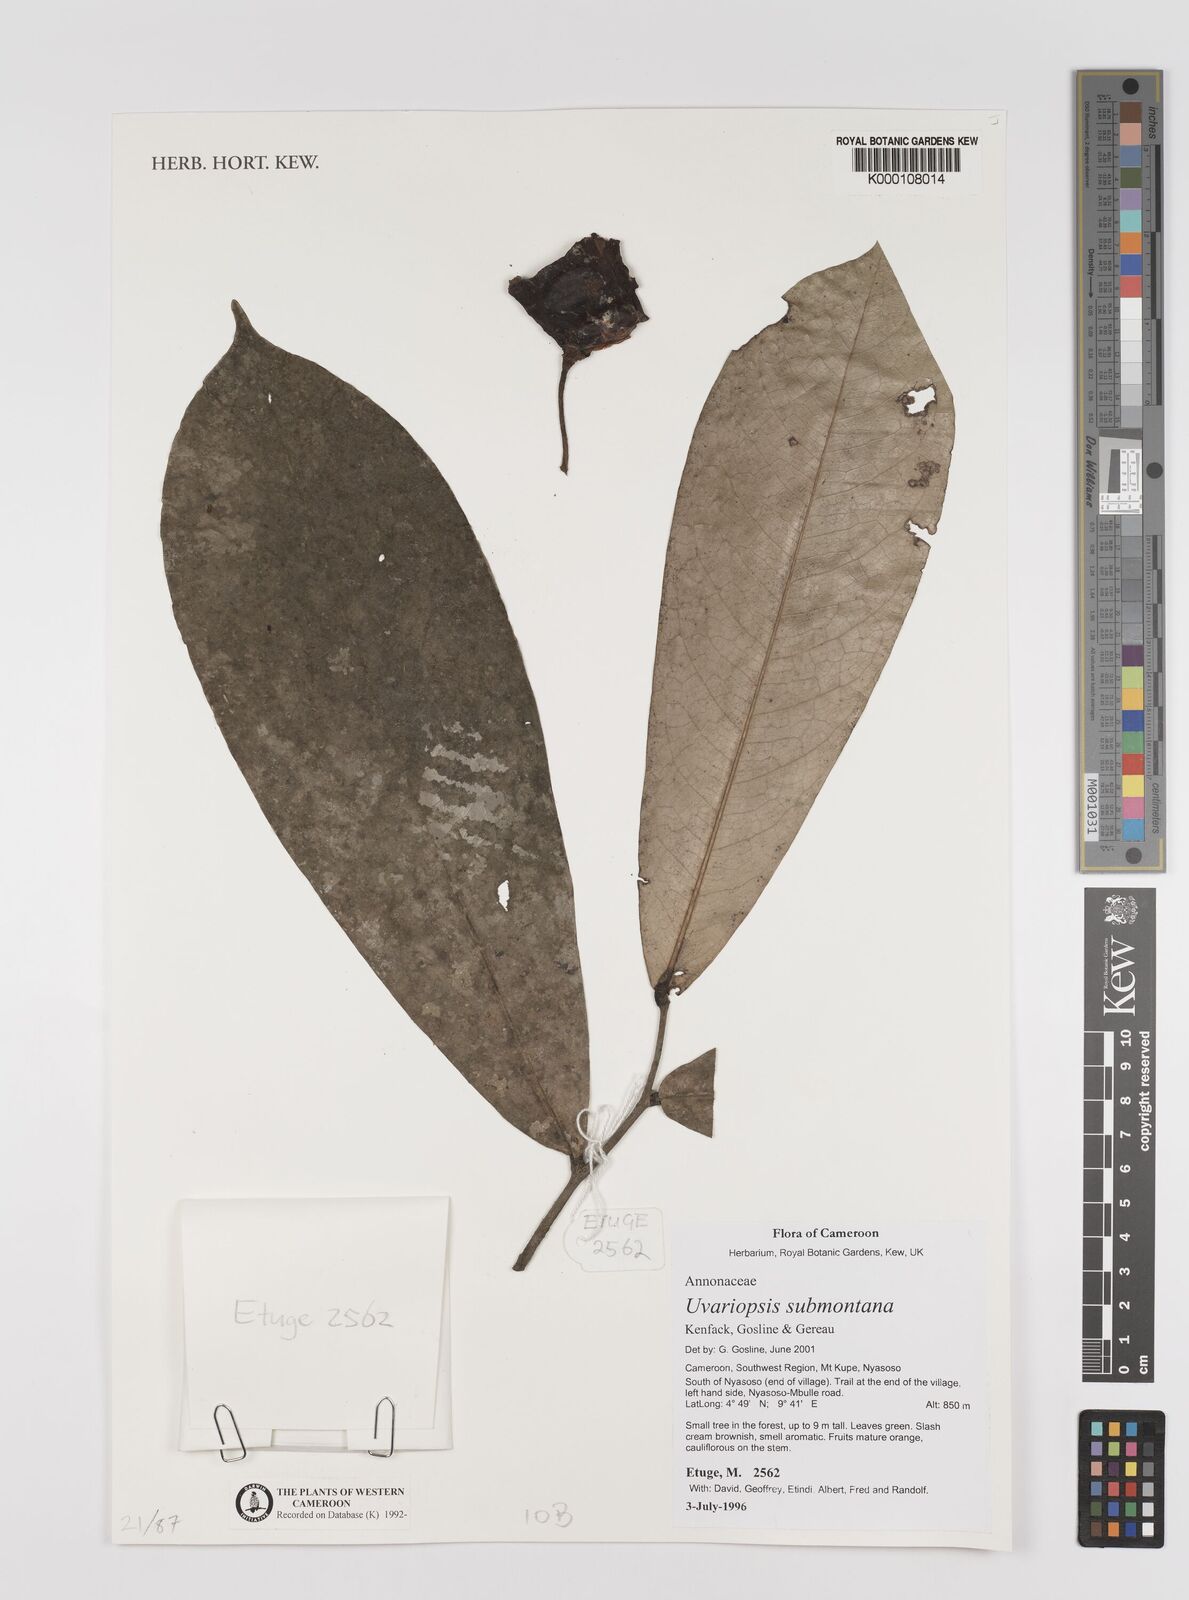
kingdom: Plantae
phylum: Tracheophyta
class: Magnoliopsida
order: Magnoliales
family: Annonaceae
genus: Uvariopsis
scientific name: Uvariopsis submontana
